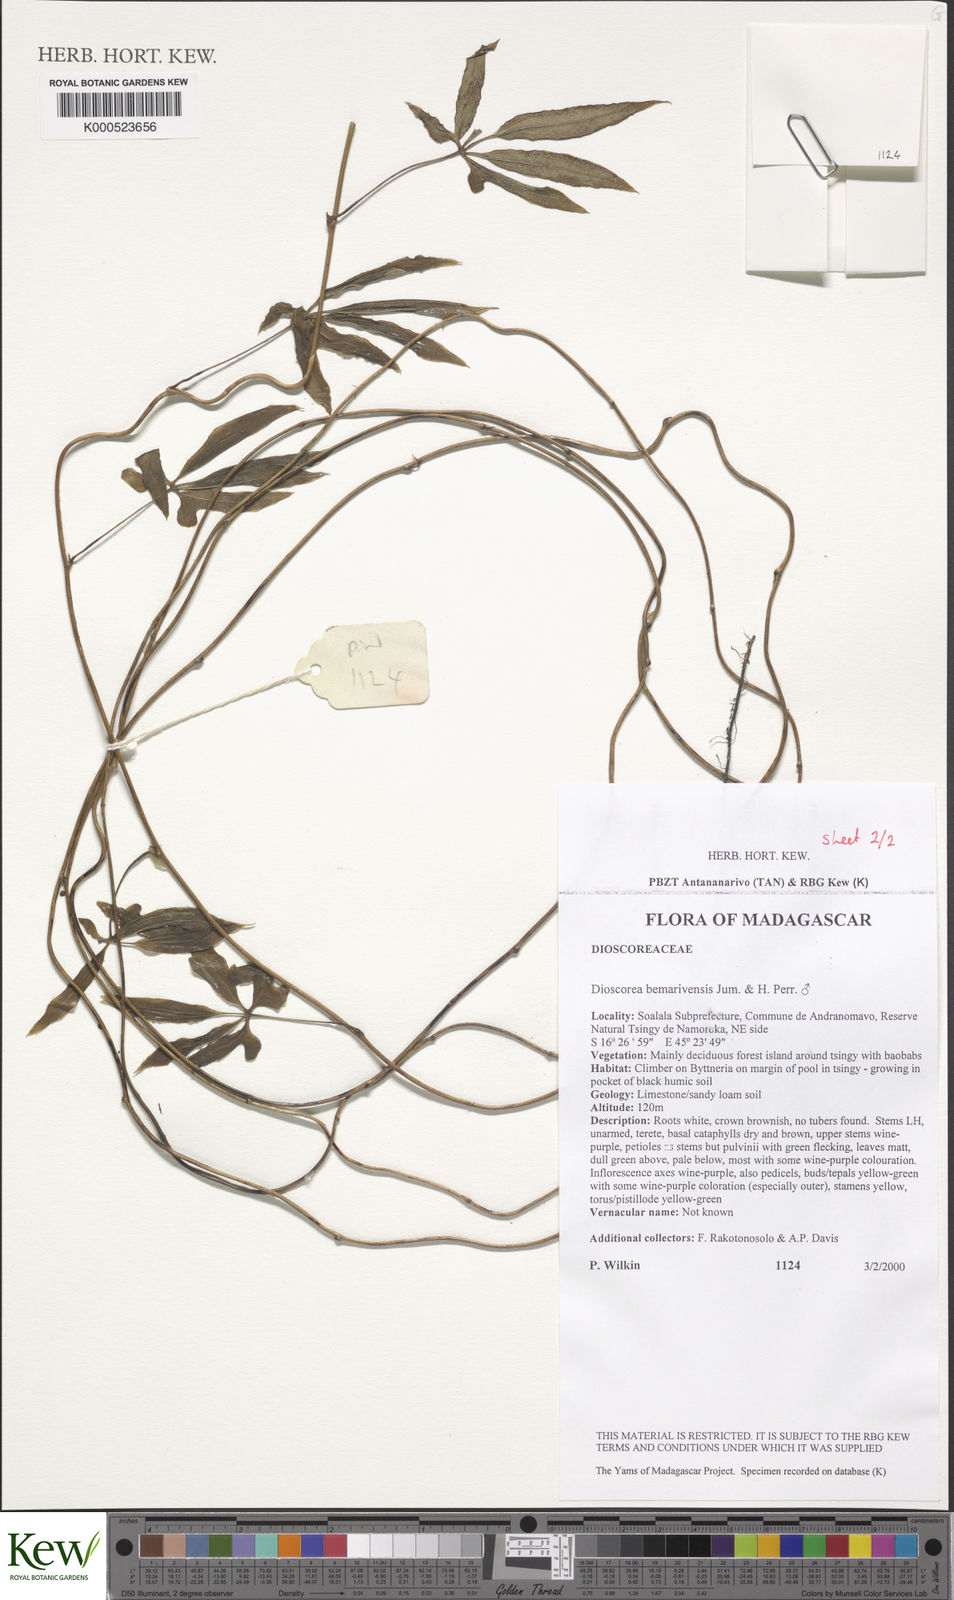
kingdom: Plantae
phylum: Tracheophyta
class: Liliopsida
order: Dioscoreales
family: Dioscoreaceae
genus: Dioscorea
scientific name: Dioscorea bemarivensis
